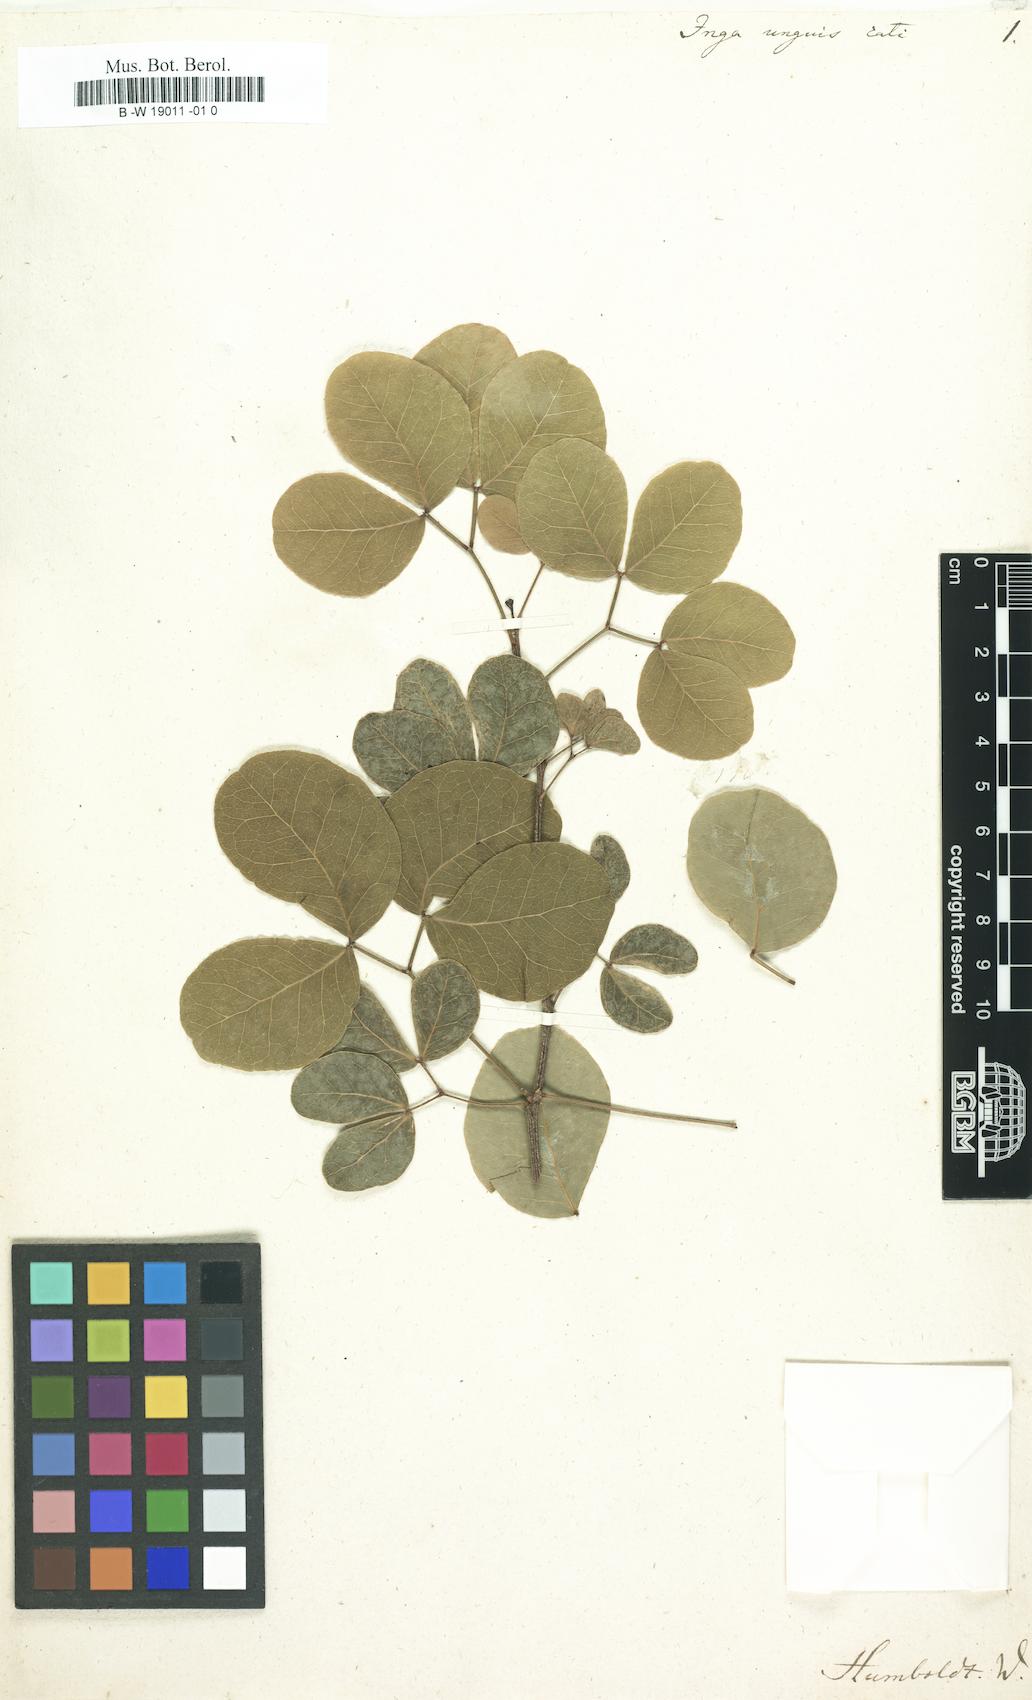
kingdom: Plantae
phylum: Tracheophyta
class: Magnoliopsida
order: Fabales
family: Fabaceae
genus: Pithecellobium
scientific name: Pithecellobium unguis-cati
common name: Cat's-claw
